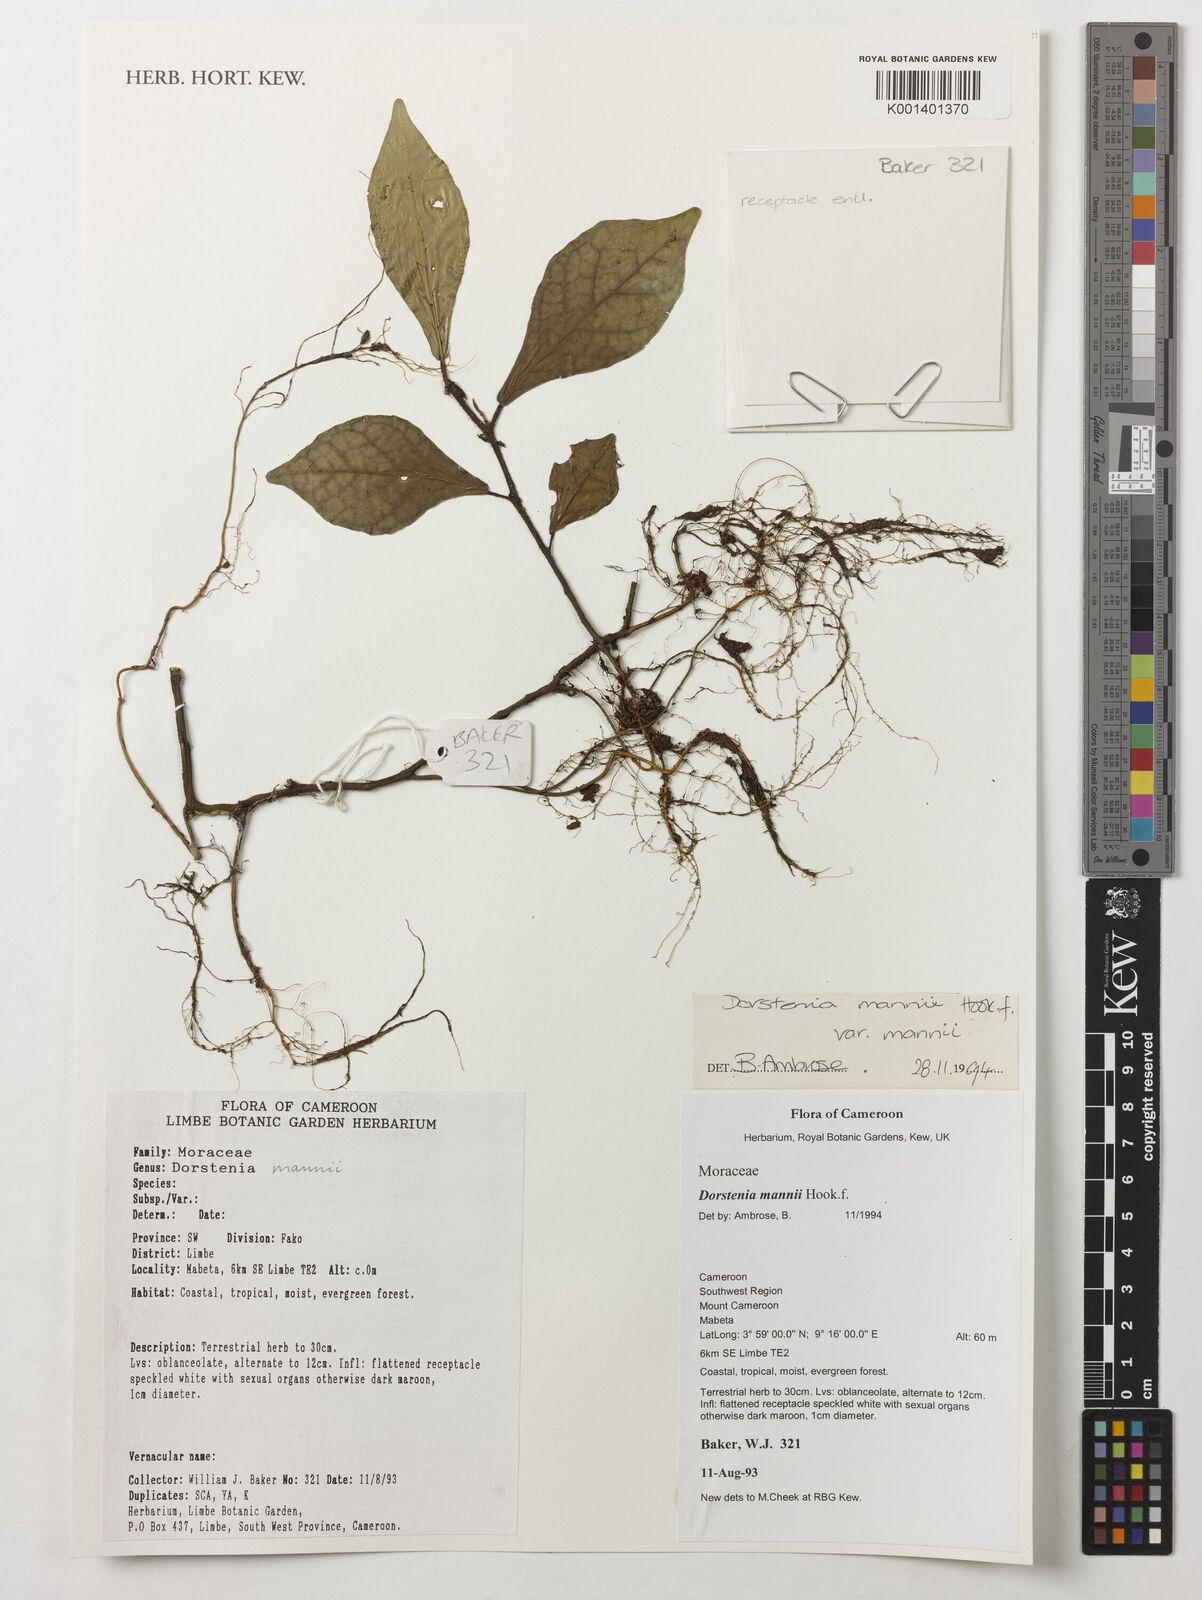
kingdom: Plantae
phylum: Tracheophyta
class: Magnoliopsida
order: Rosales
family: Moraceae
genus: Dorstenia
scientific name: Dorstenia mannii
